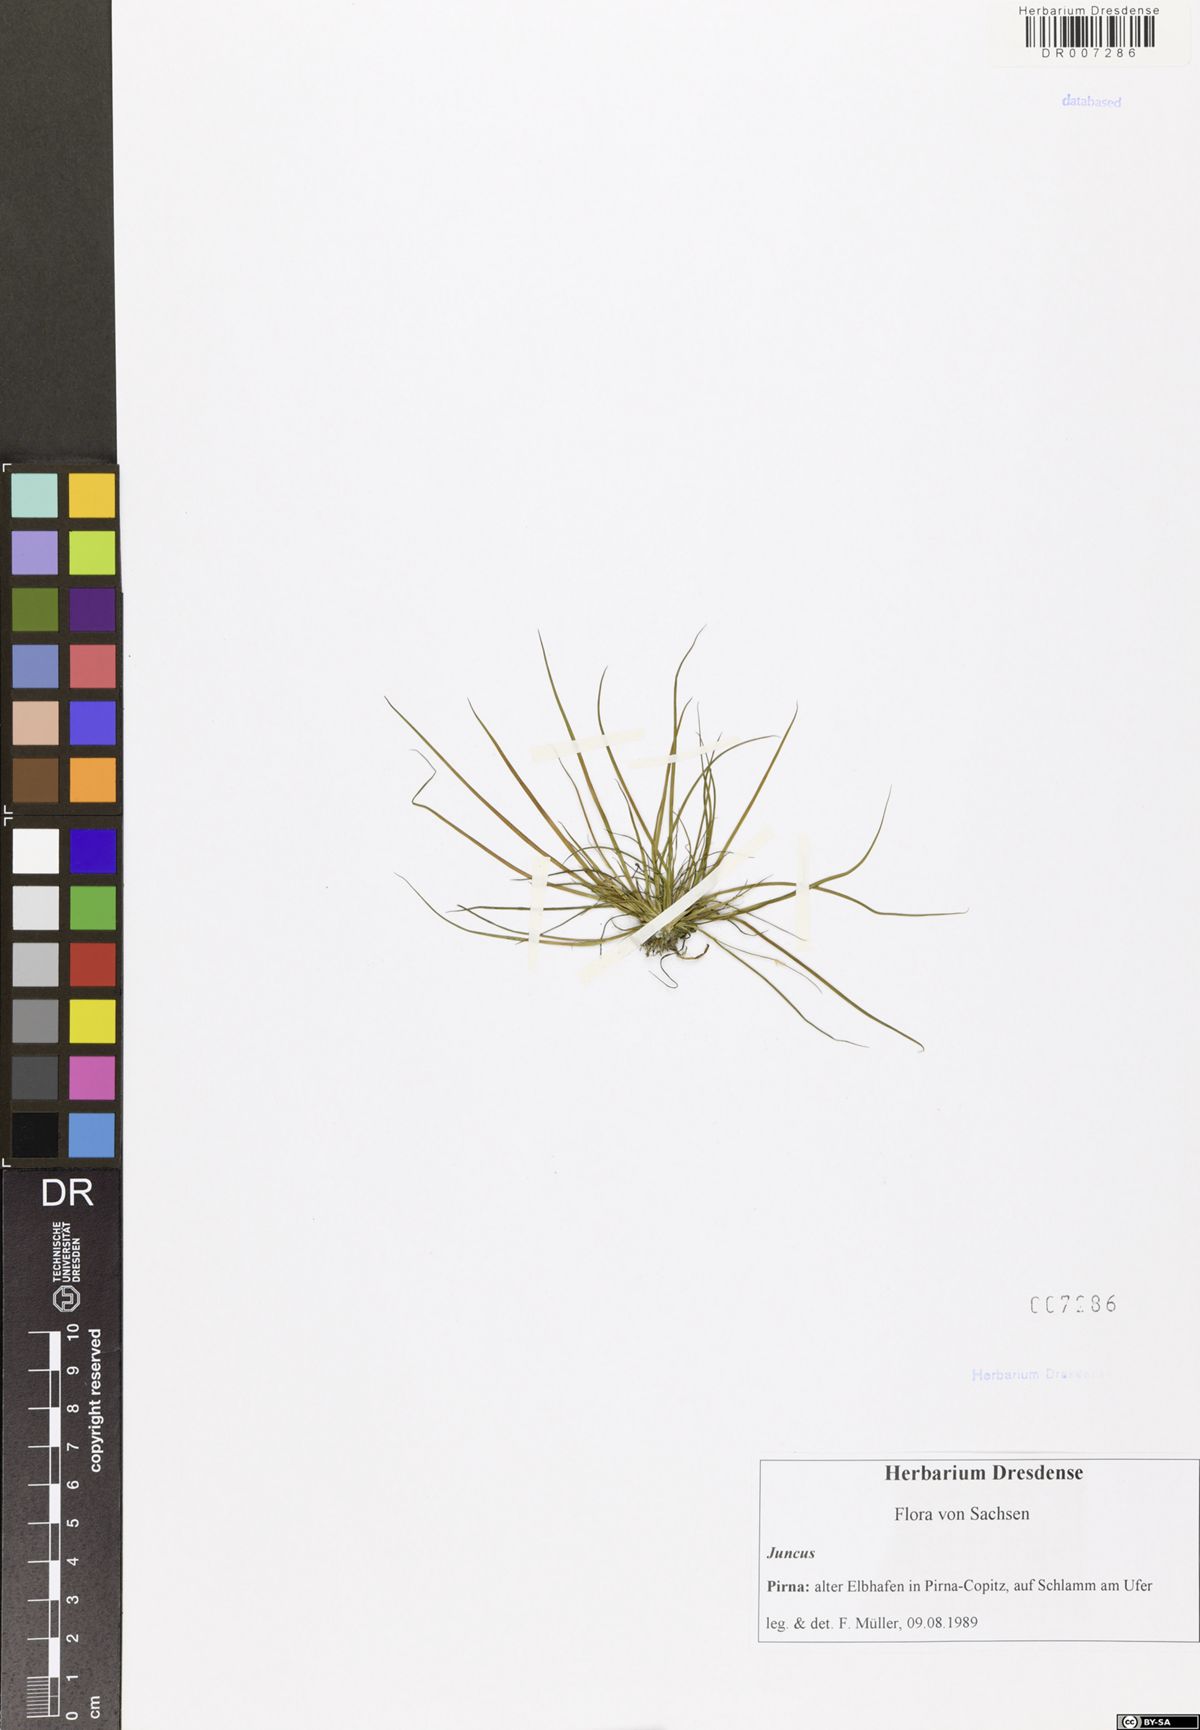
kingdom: Plantae
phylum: Tracheophyta
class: Liliopsida
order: Poales
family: Juncaceae
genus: Juncus
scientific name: Juncus
